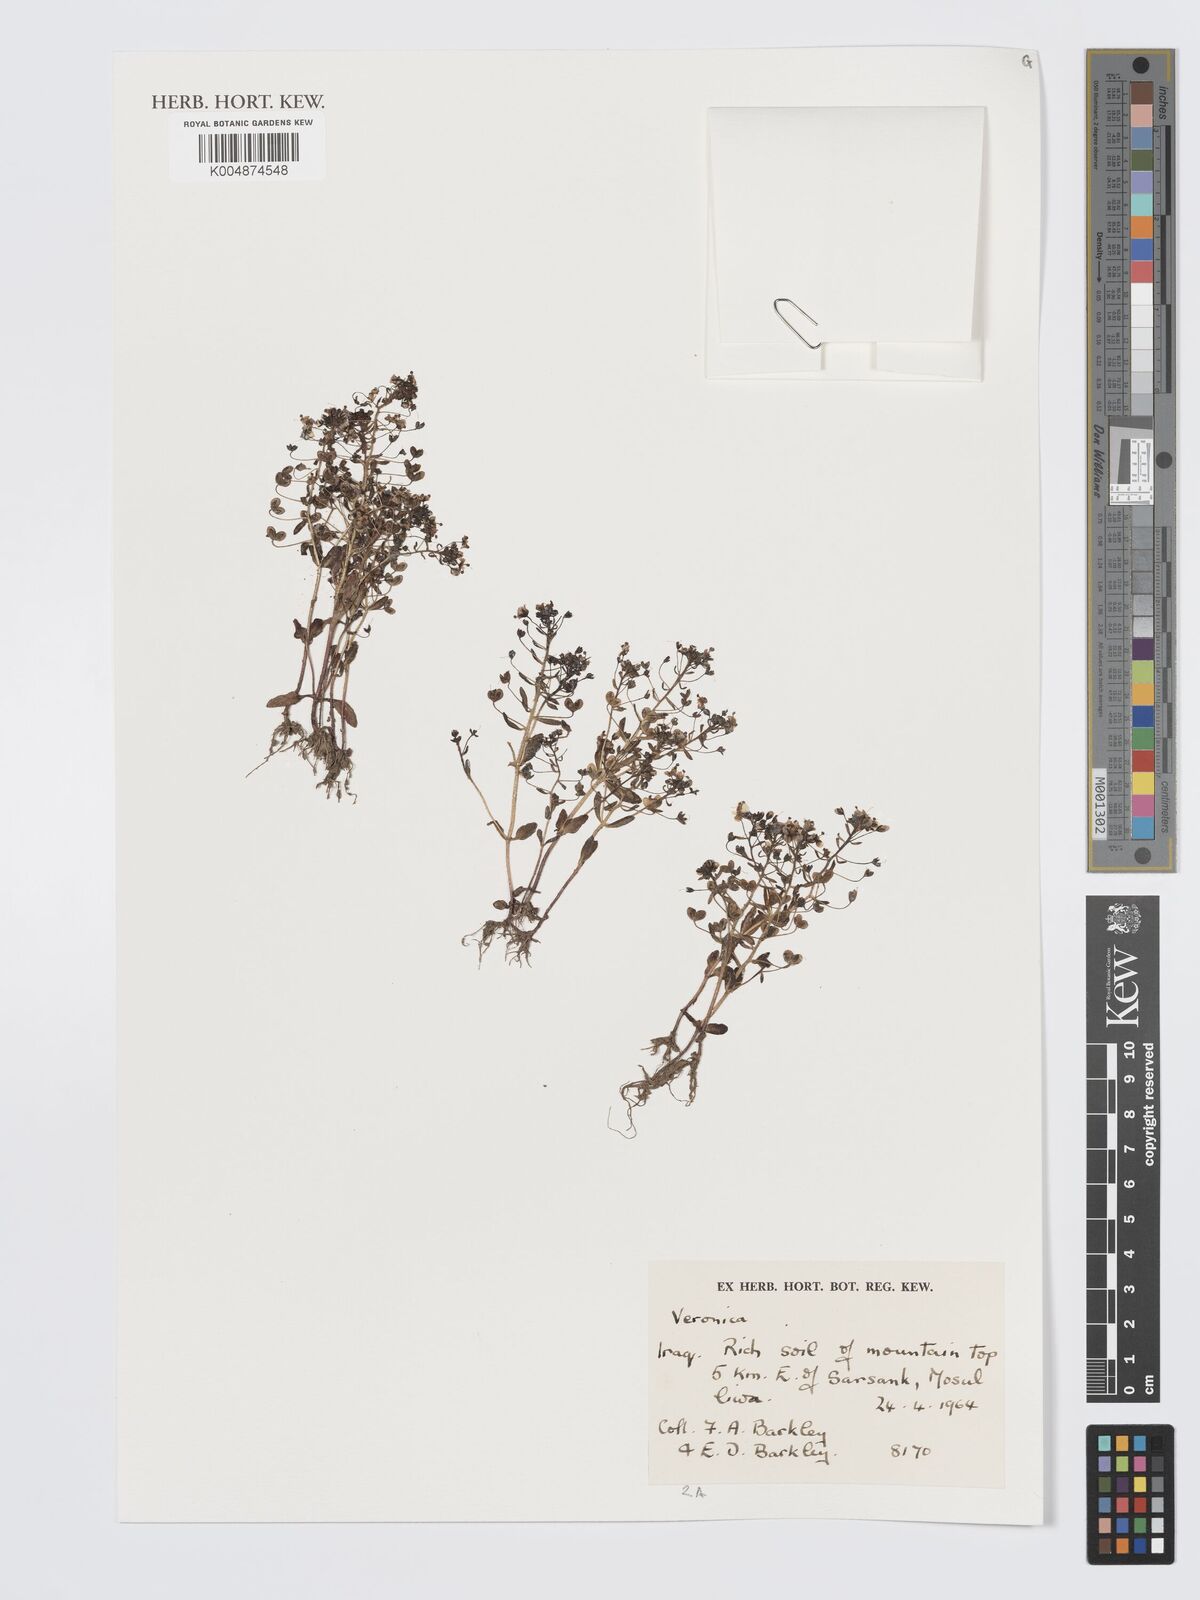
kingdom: Plantae
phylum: Tracheophyta
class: Magnoliopsida
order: Lamiales
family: Plantaginaceae
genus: Veronica
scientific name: Veronica
